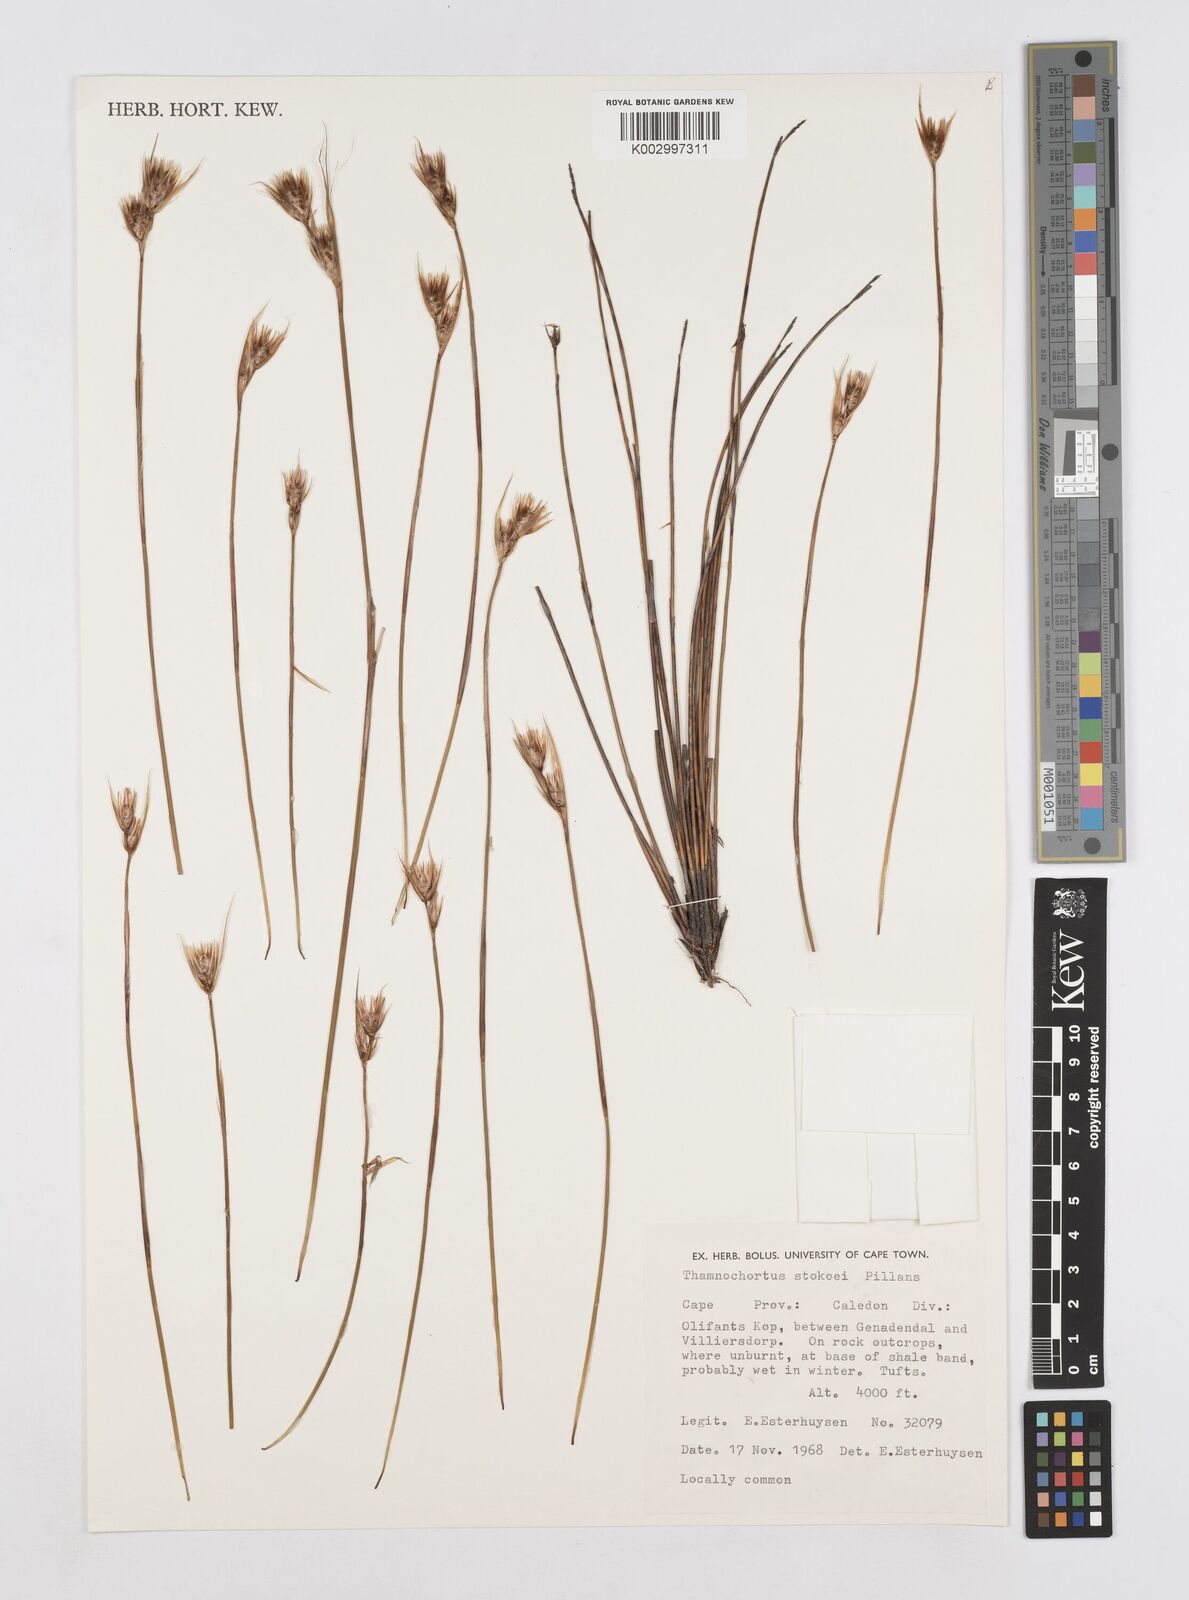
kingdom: Plantae
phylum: Tracheophyta
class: Liliopsida
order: Poales
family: Restionaceae
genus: Thamnochortus
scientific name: Thamnochortus stokoei
